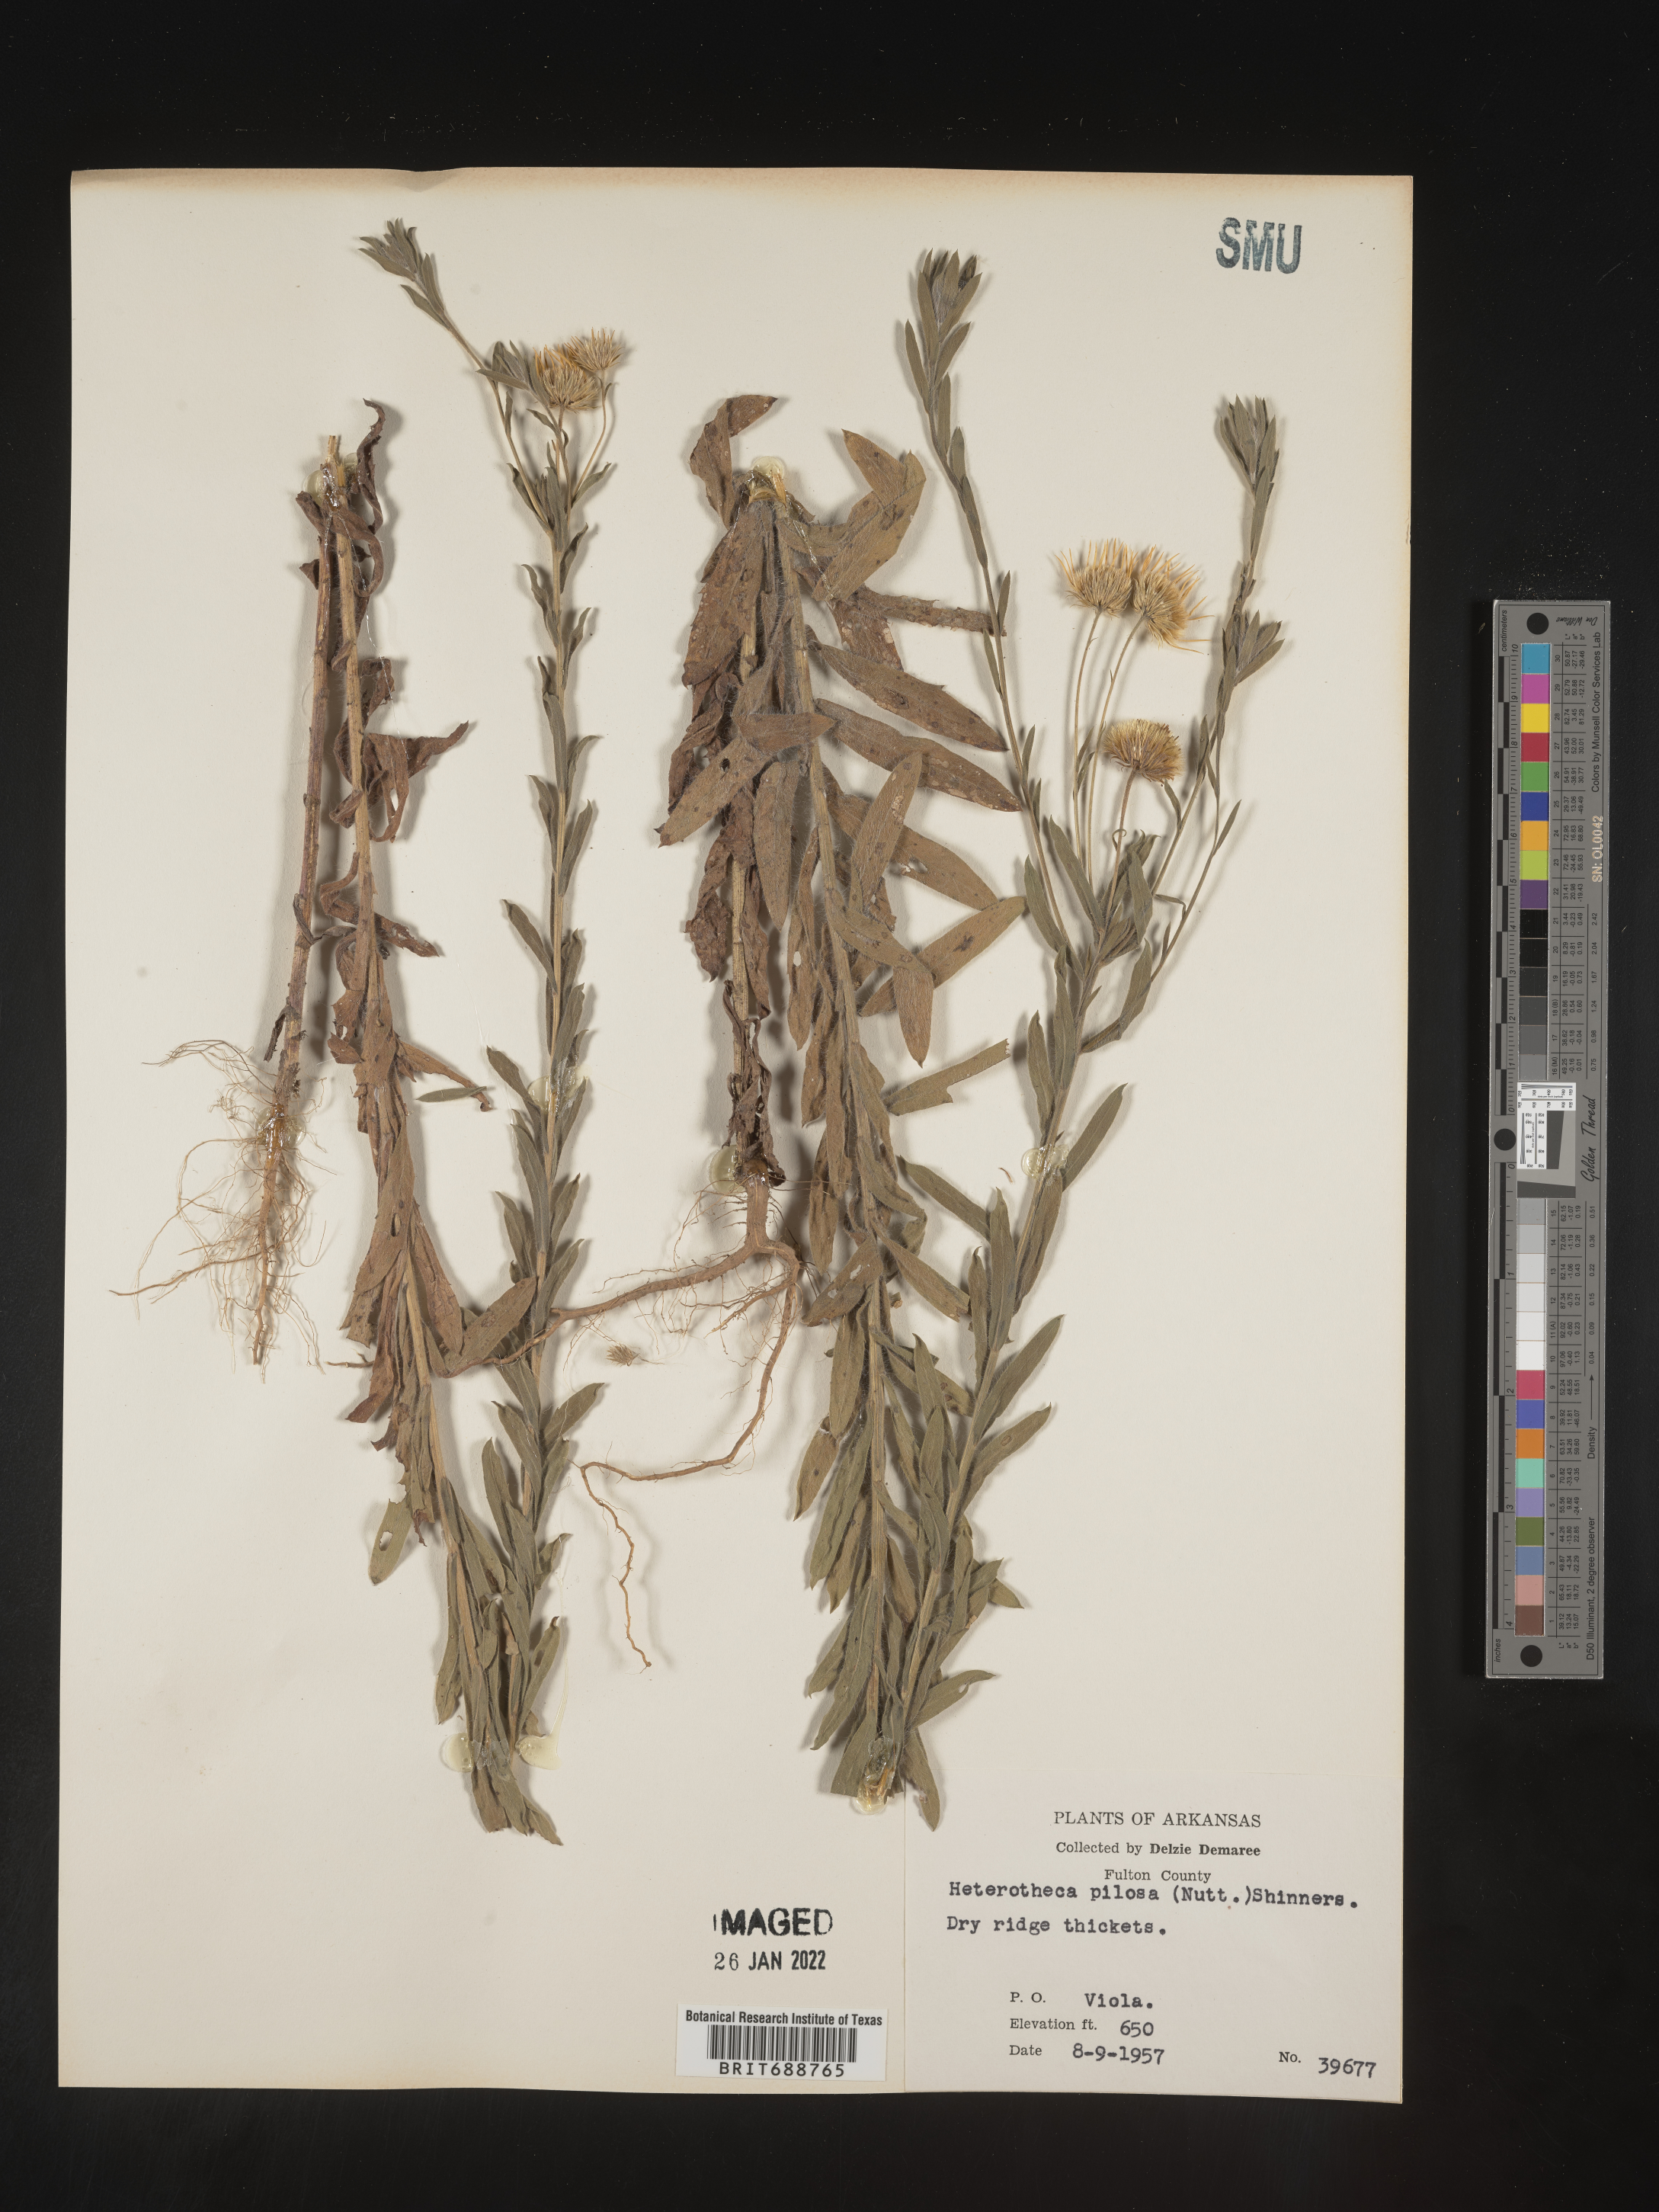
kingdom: Plantae
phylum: Tracheophyta
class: Magnoliopsida
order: Asterales
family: Asteraceae
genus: Bradburia
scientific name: Bradburia pilosa
